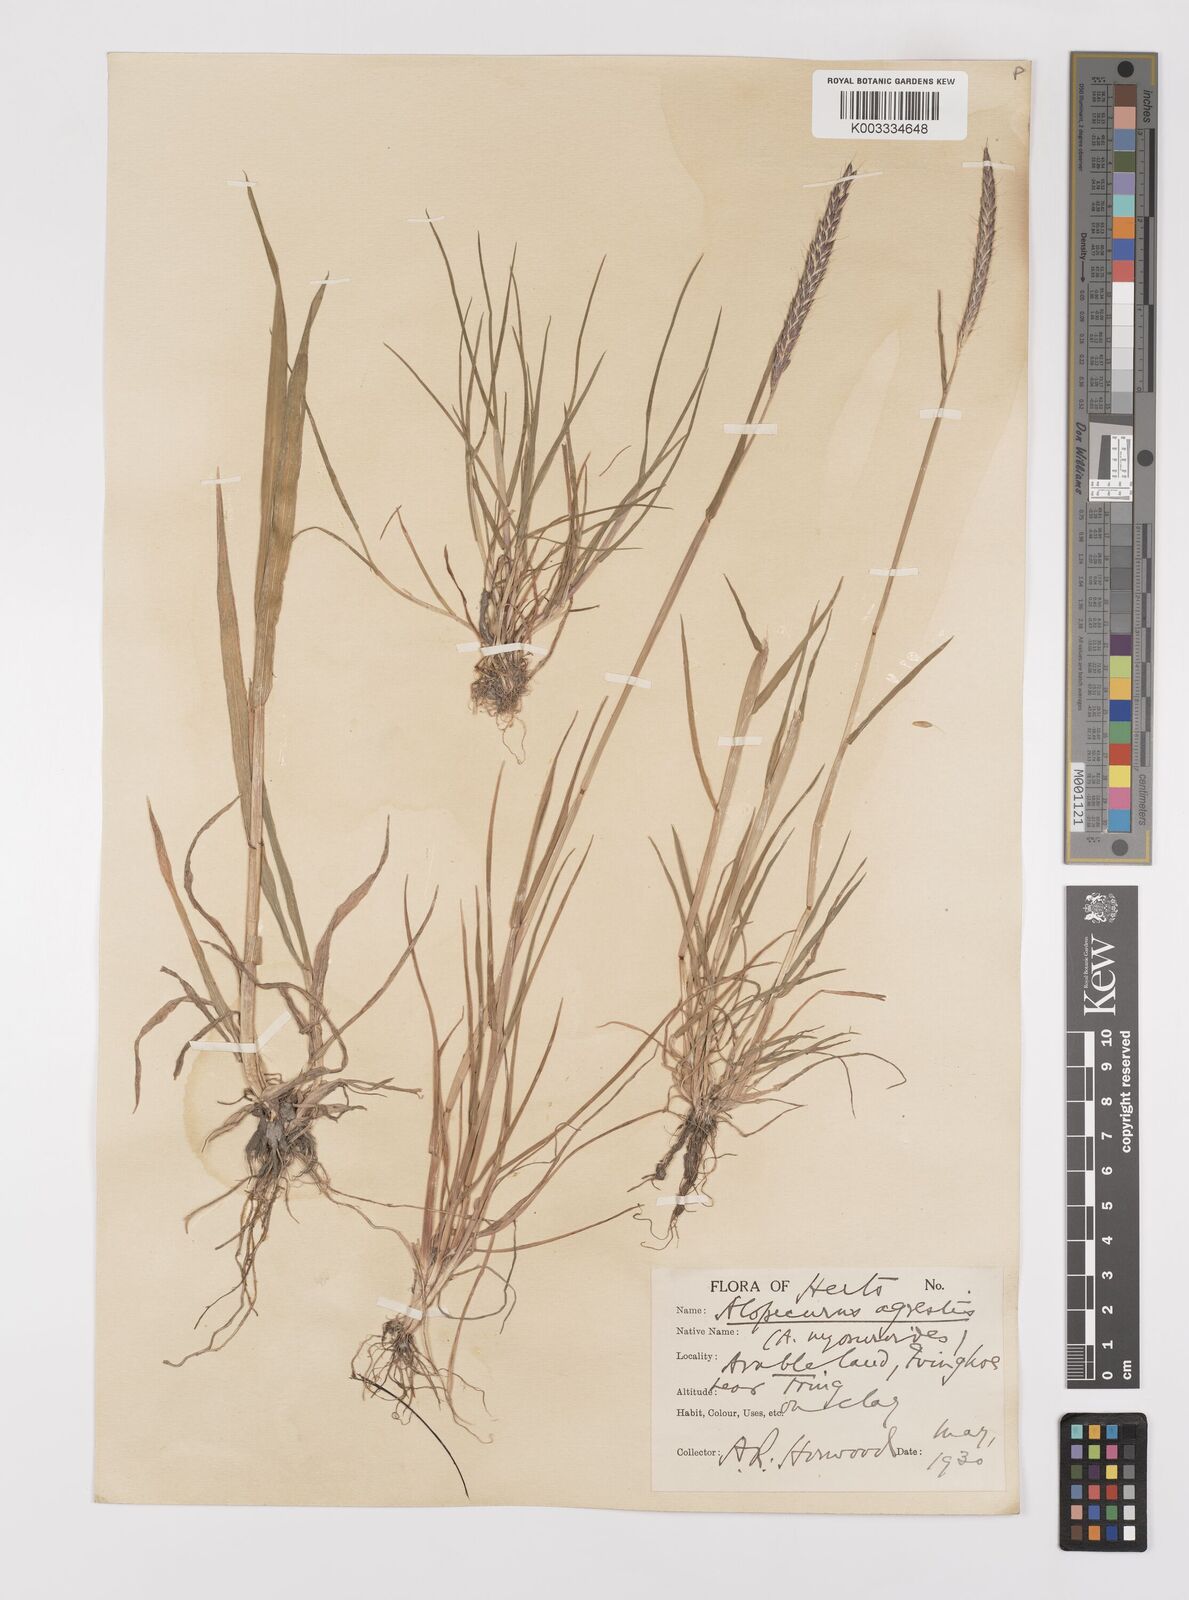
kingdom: Plantae
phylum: Tracheophyta
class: Liliopsida
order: Poales
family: Poaceae
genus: Alopecurus
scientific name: Alopecurus myosuroides
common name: Black-grass
